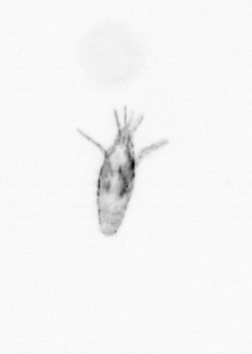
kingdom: Animalia
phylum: Arthropoda
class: Copepoda
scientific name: Copepoda
